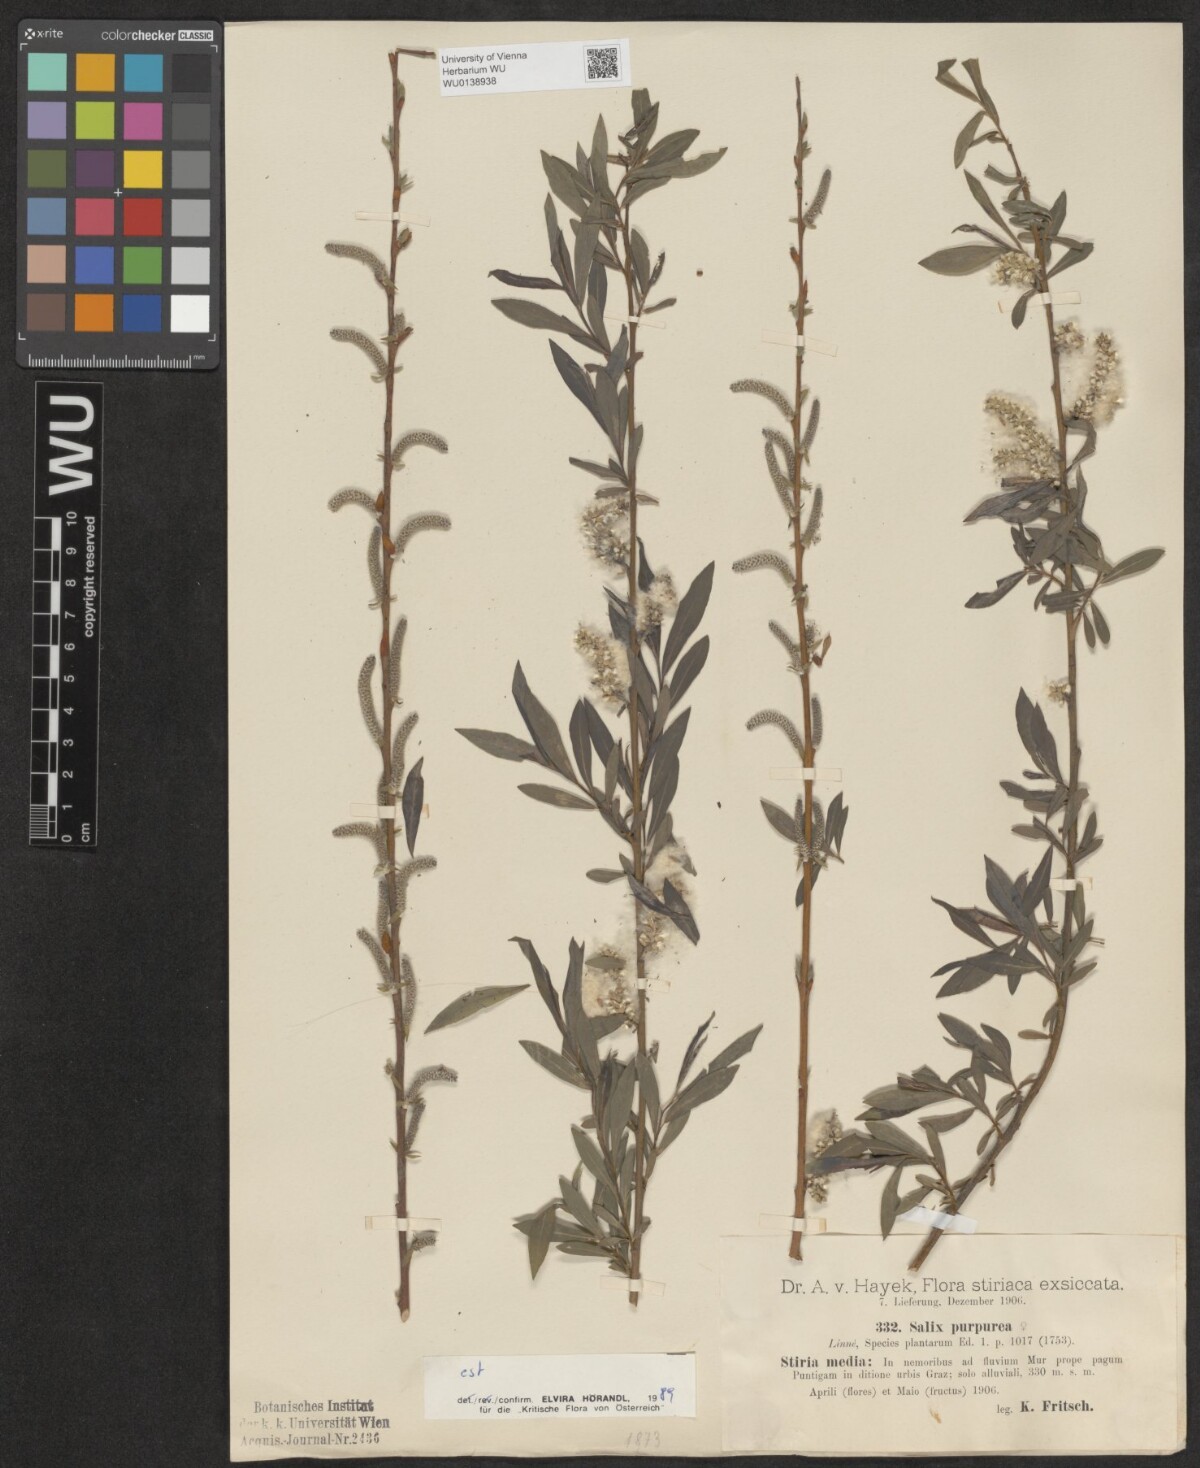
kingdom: Plantae
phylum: Tracheophyta
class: Magnoliopsida
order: Malpighiales
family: Salicaceae
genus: Salix
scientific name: Salix purpurea
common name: Purple willow
